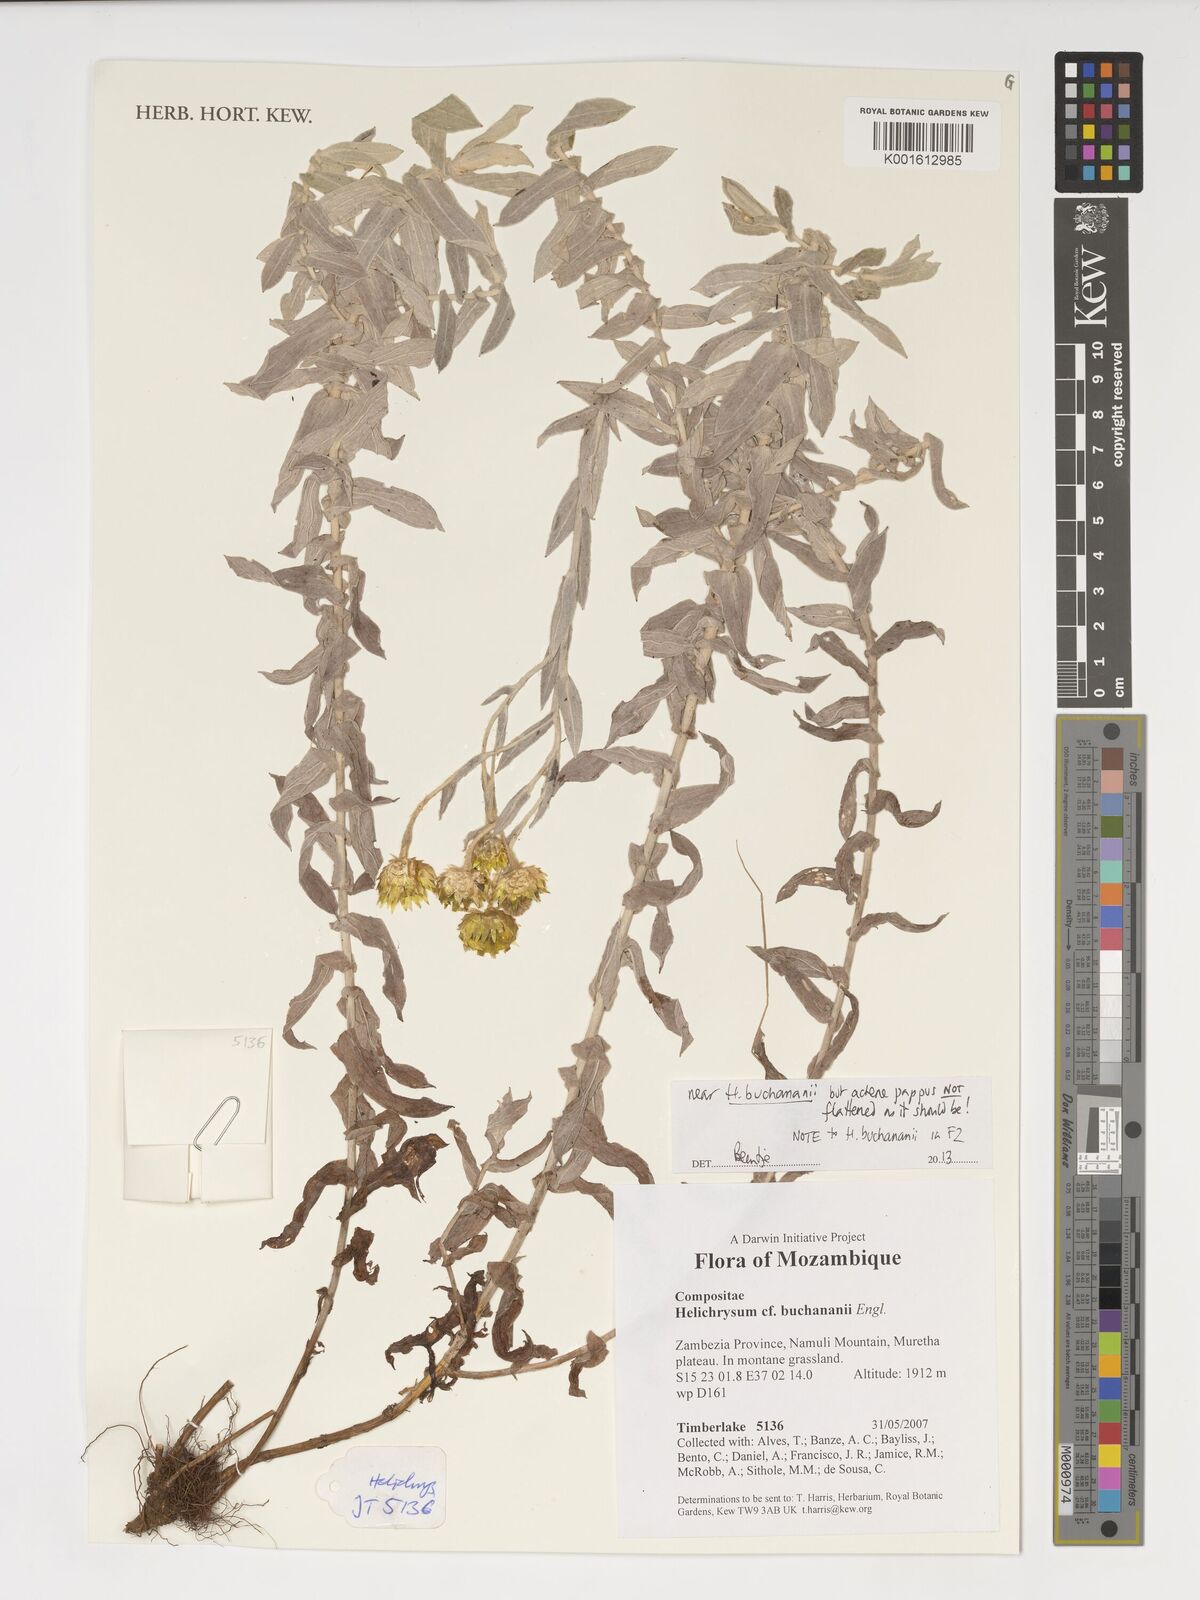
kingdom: Plantae
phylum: Tracheophyta
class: Magnoliopsida
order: Asterales
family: Asteraceae
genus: Helichrysum
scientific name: Helichrysum buchananii
